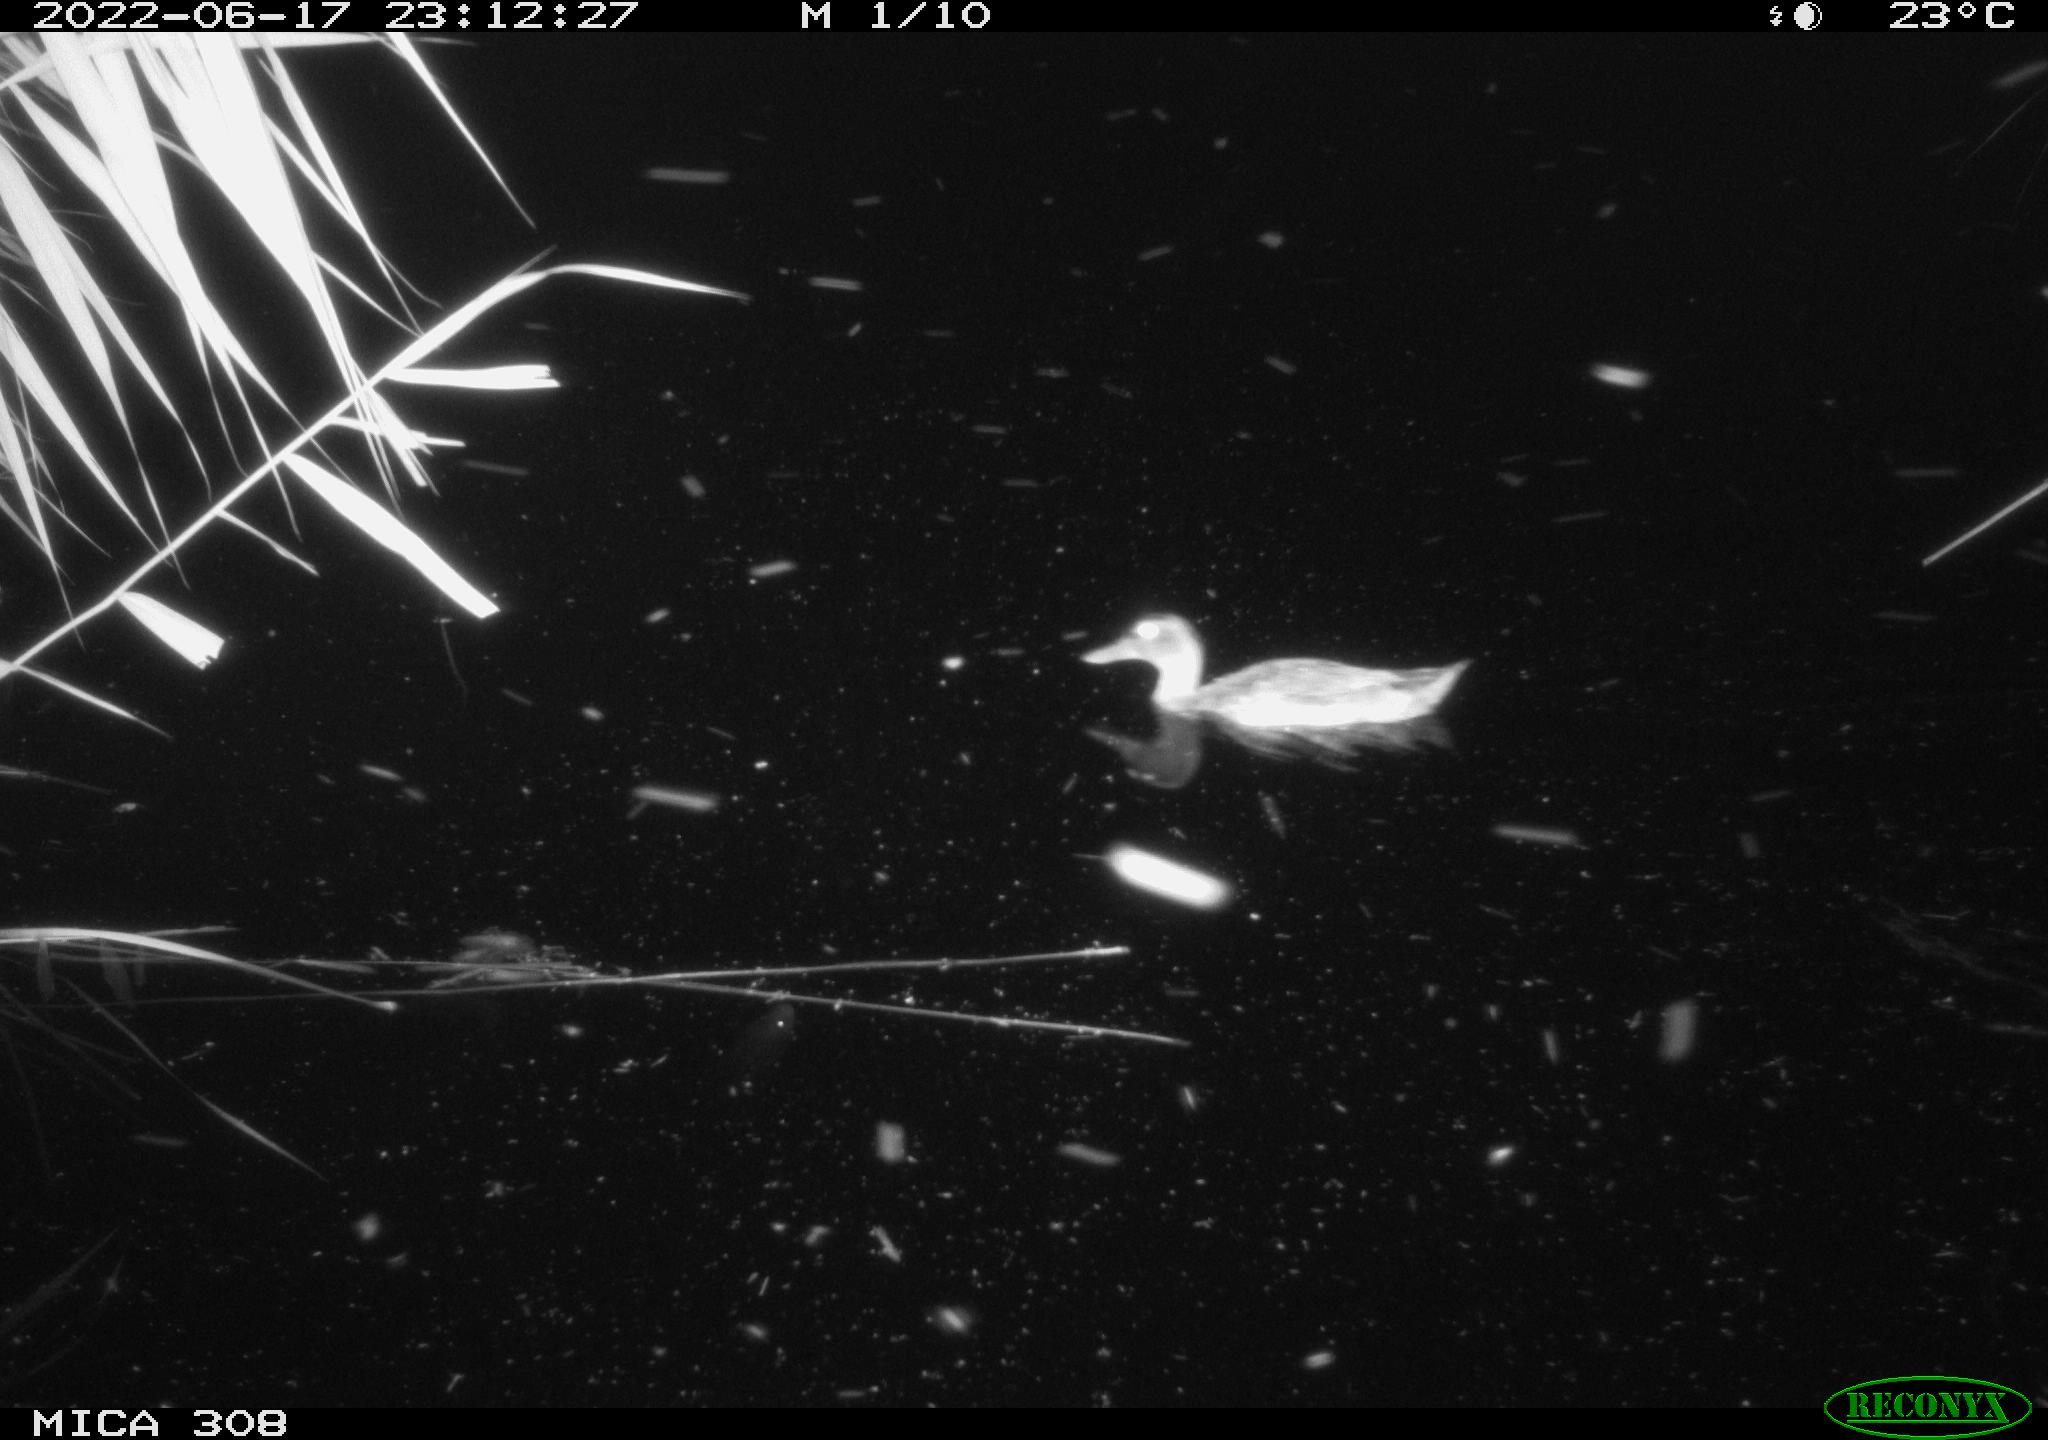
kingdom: Animalia
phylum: Chordata
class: Aves
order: Anseriformes
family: Anatidae
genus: Anas
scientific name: Anas platyrhynchos
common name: Mallard
